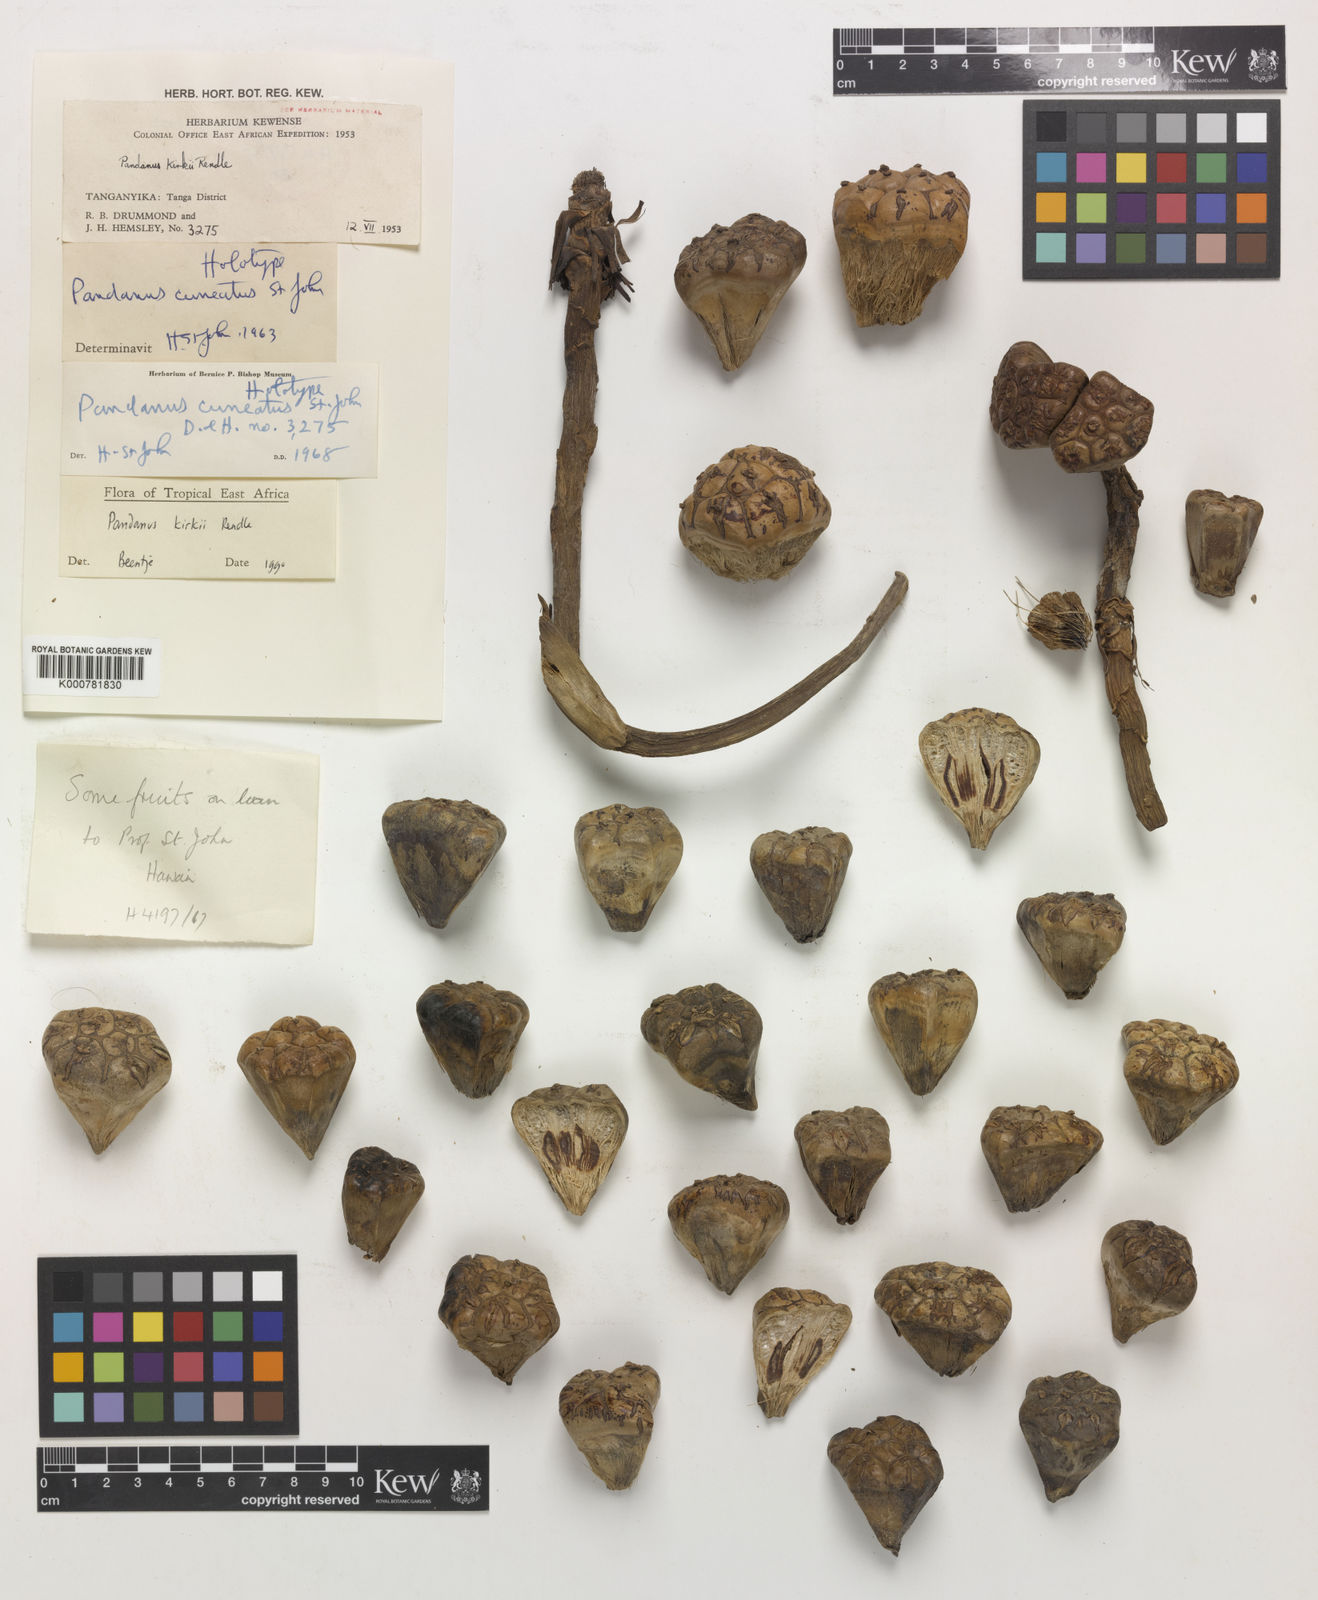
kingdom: Plantae
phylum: Tracheophyta
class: Liliopsida
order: Pandanales
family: Pandanaceae
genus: Pandanus
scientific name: Pandanus kirkii
